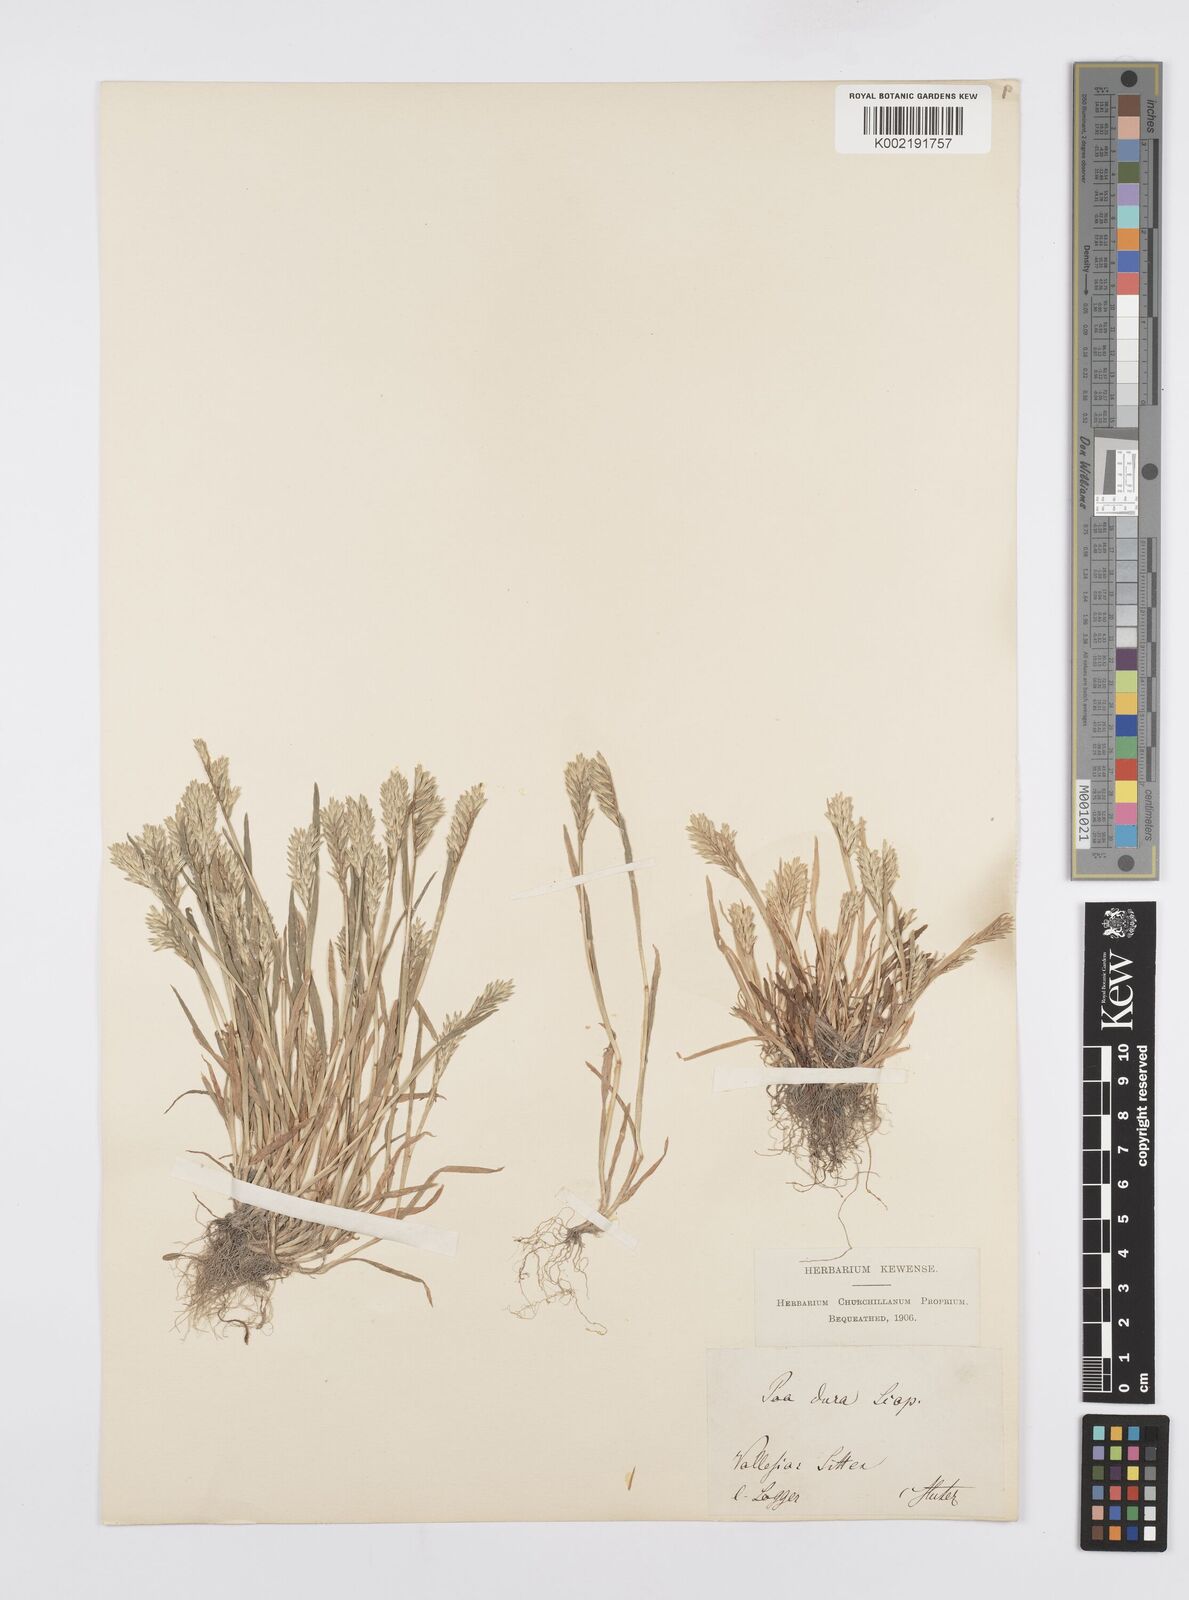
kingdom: Plantae
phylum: Tracheophyta
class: Liliopsida
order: Poales
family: Poaceae
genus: Sclerochloa
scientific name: Sclerochloa dura
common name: Common hardgrass
